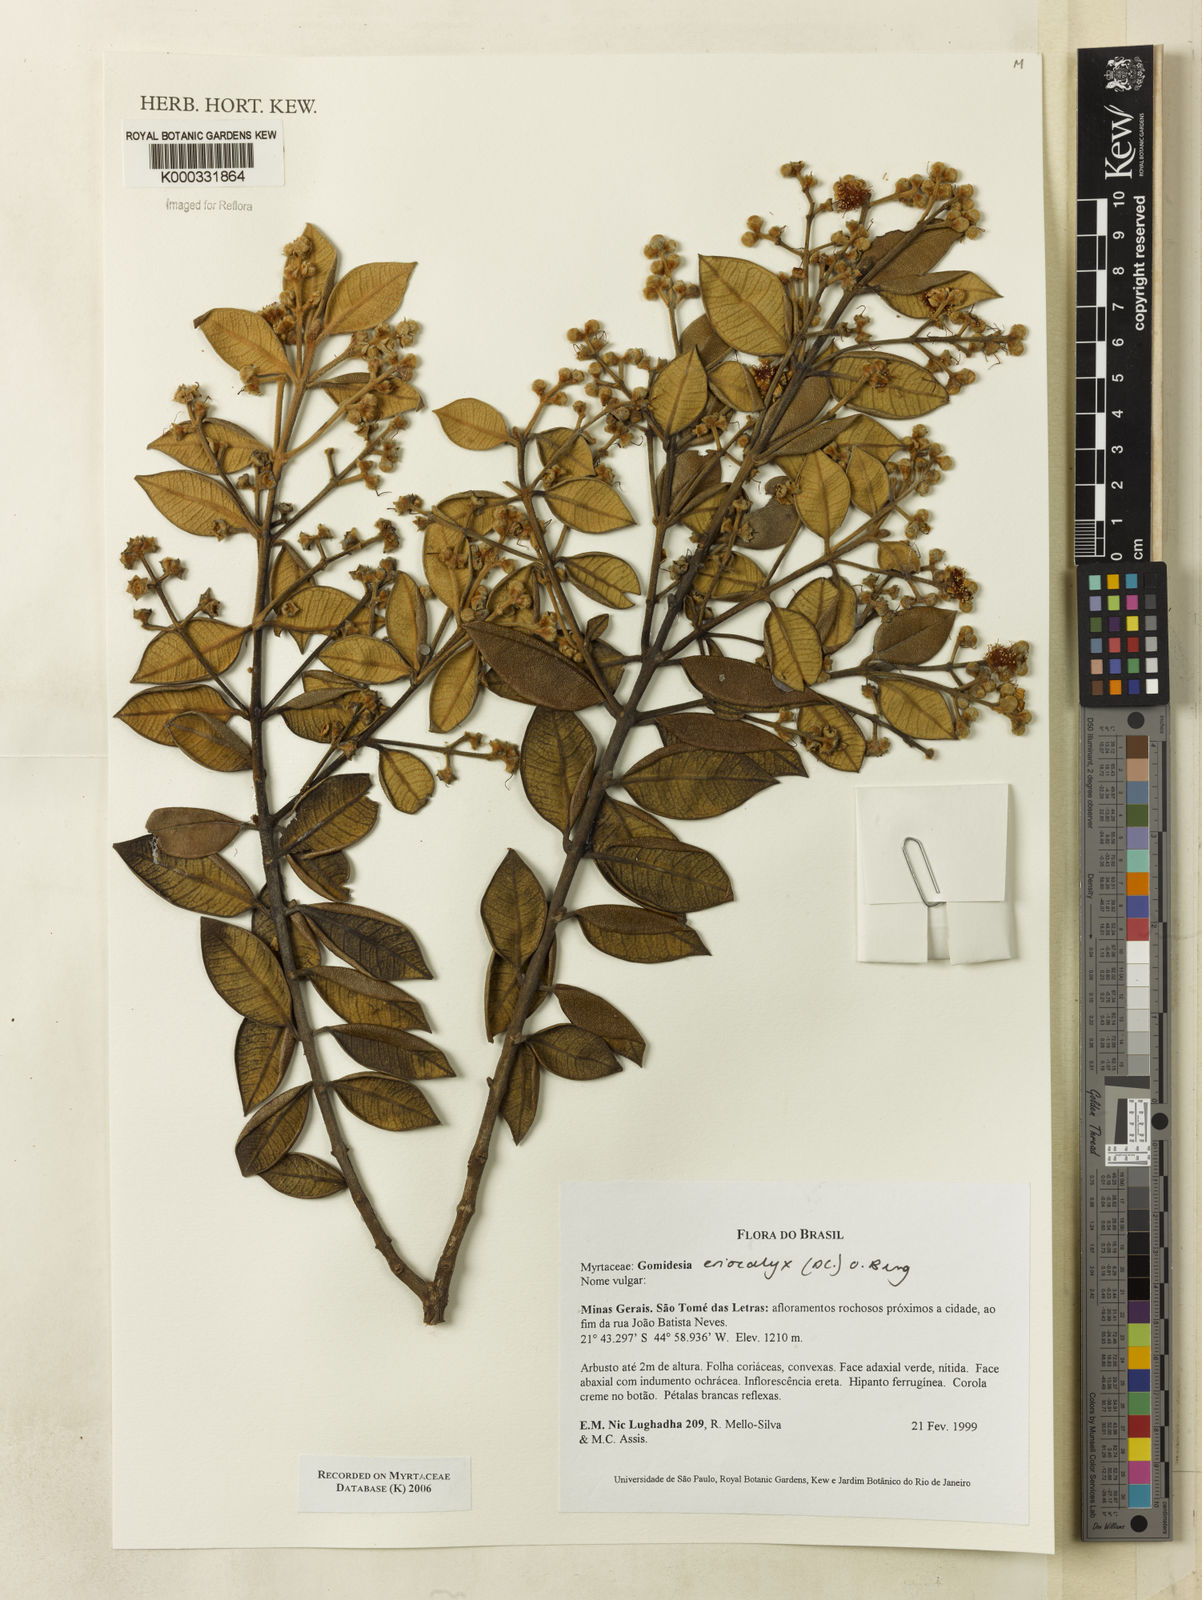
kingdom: Plantae
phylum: Tracheophyta
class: Magnoliopsida
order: Myrtales
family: Myrtaceae
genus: Myrcia
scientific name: Myrcia eriocalyx
